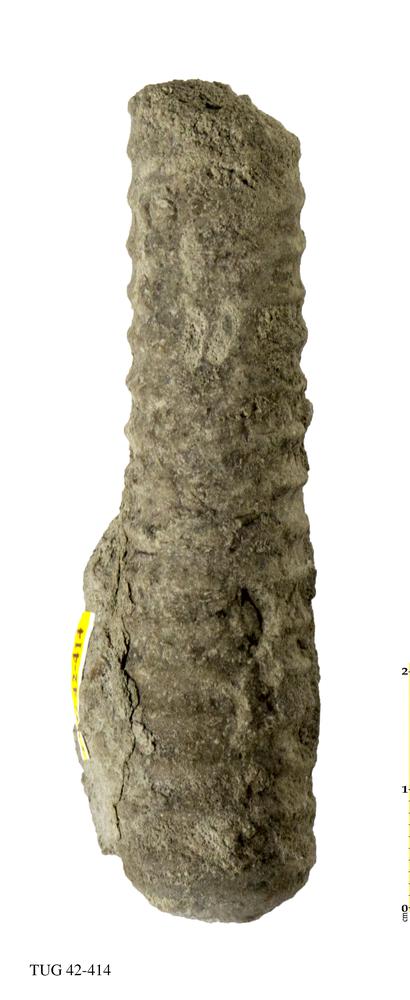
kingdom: Animalia
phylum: Mollusca
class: Cephalopoda
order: Orthocerida
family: Orthoceratidae
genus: Orthoceras
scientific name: Orthoceras
